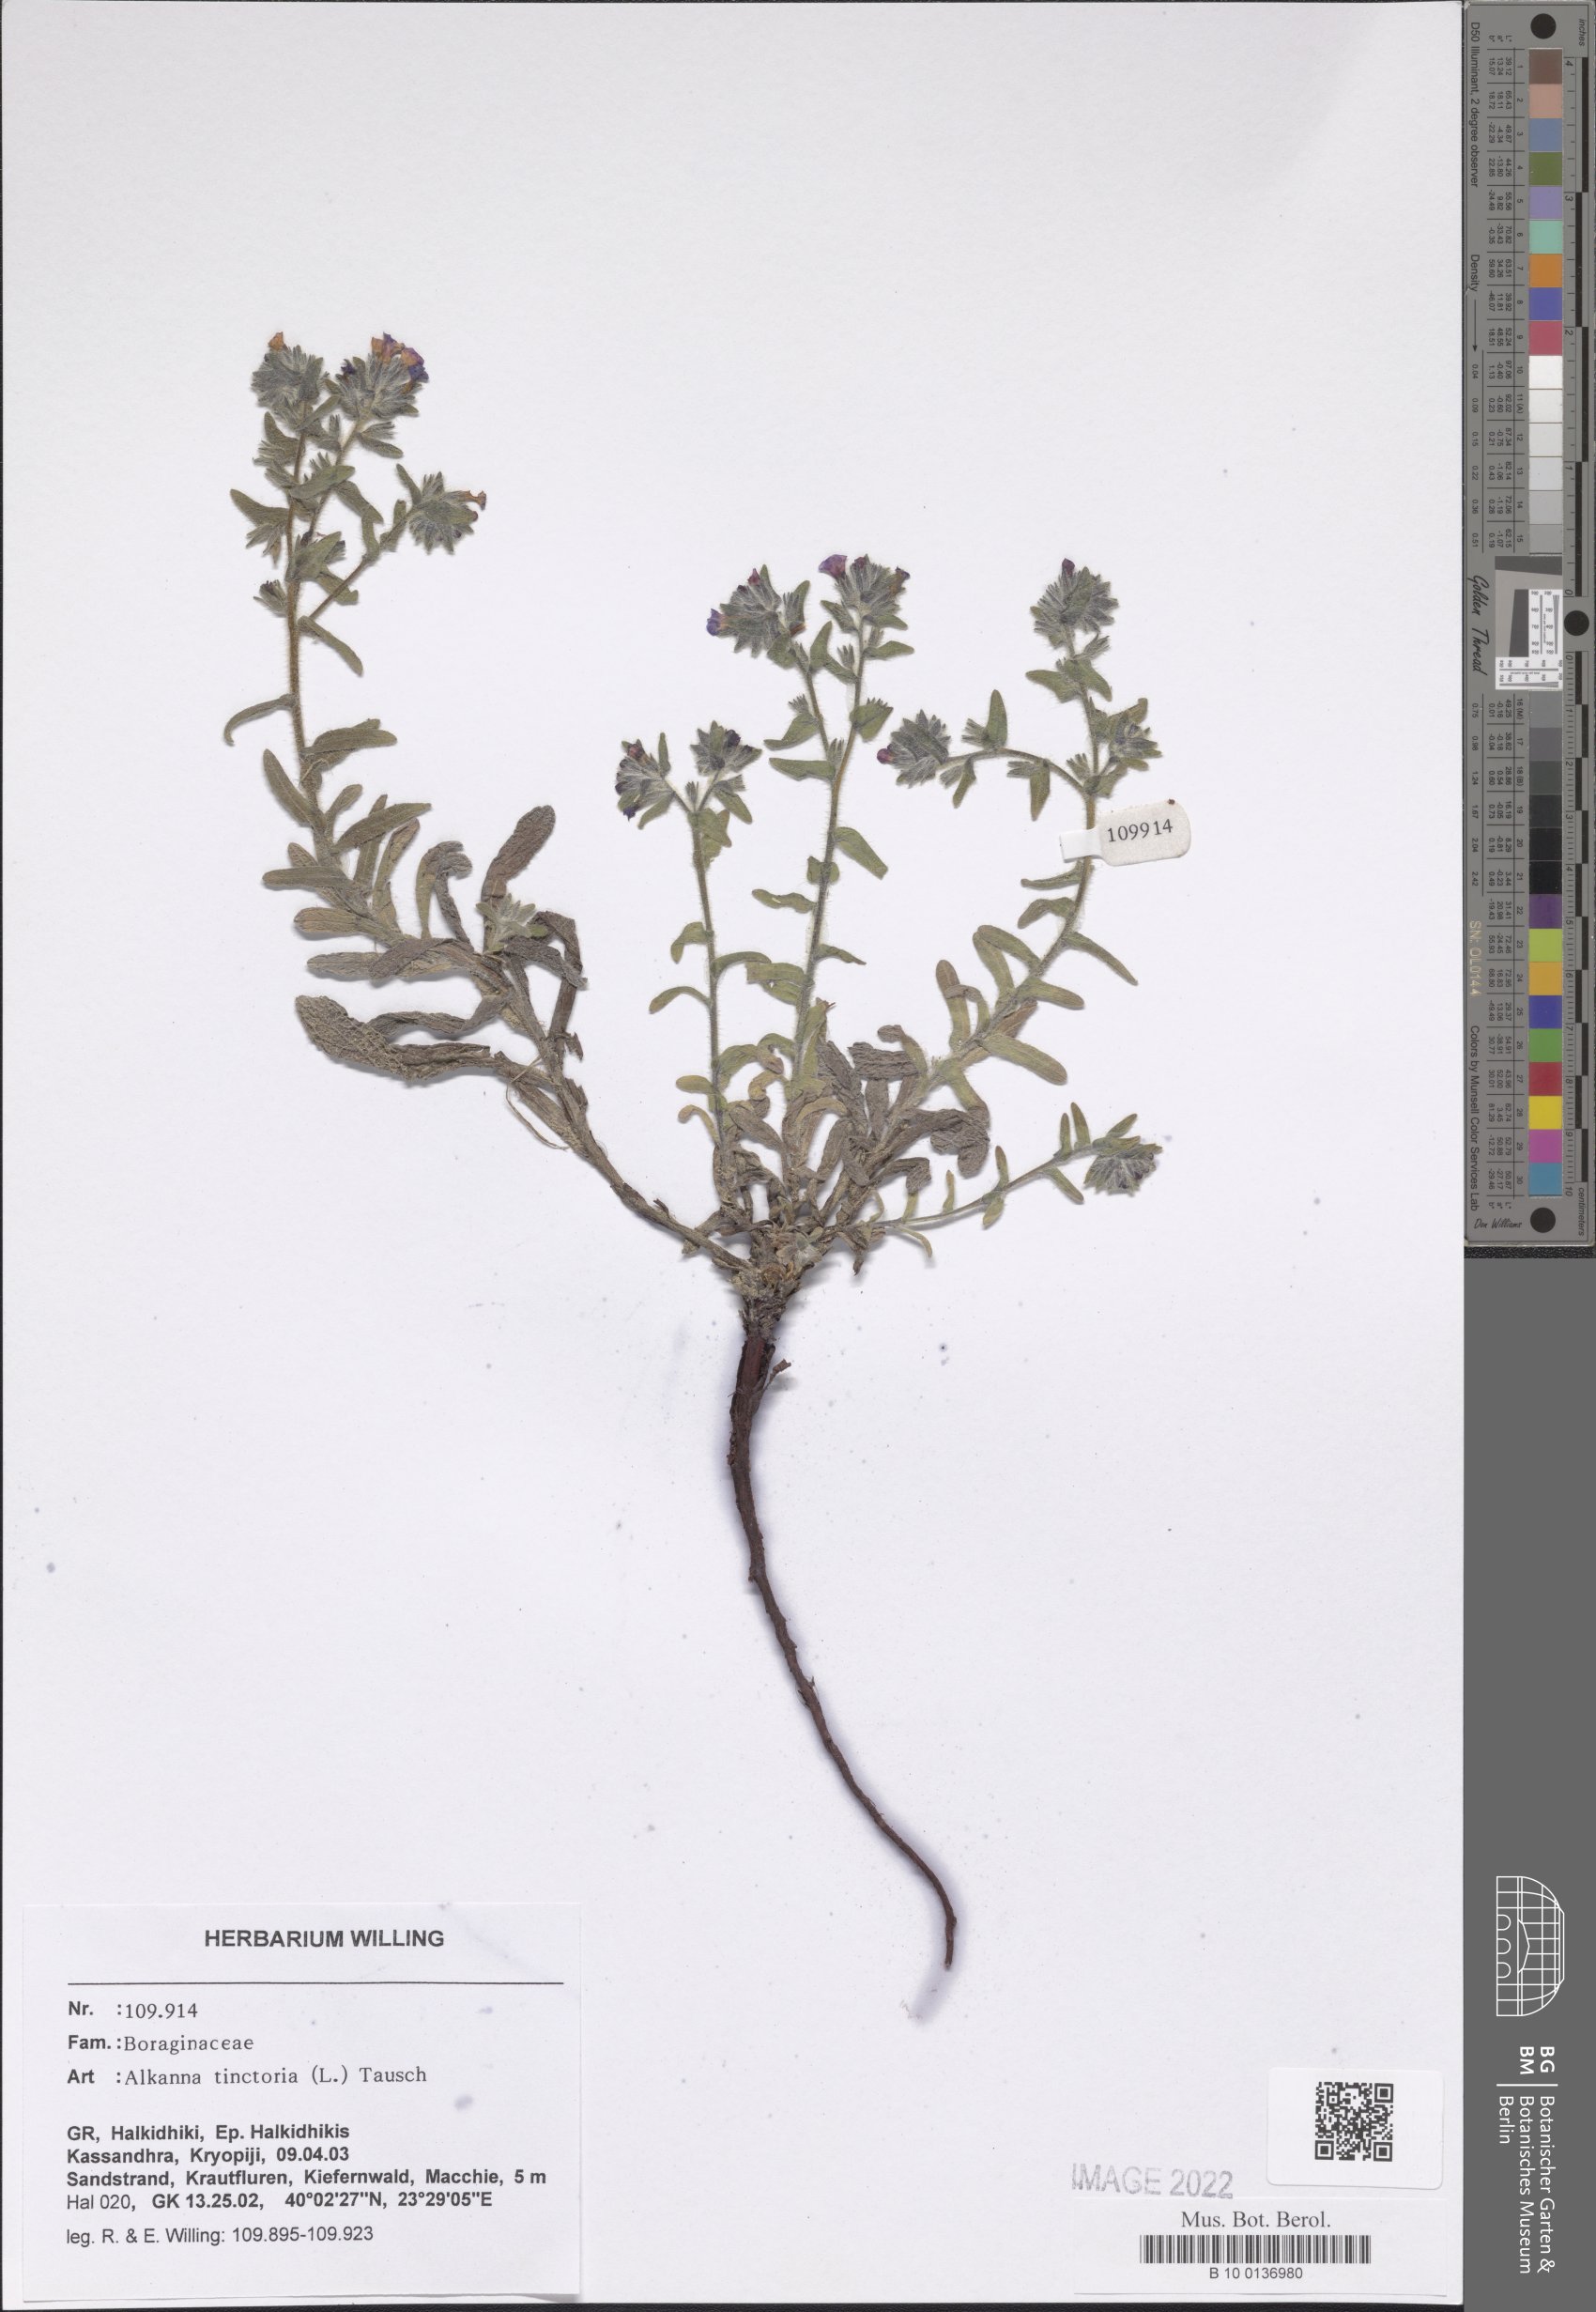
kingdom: Plantae
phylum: Tracheophyta
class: Magnoliopsida
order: Boraginales
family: Boraginaceae
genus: Alkanna
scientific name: Alkanna tinctoria
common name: Dyer's-alkanet
